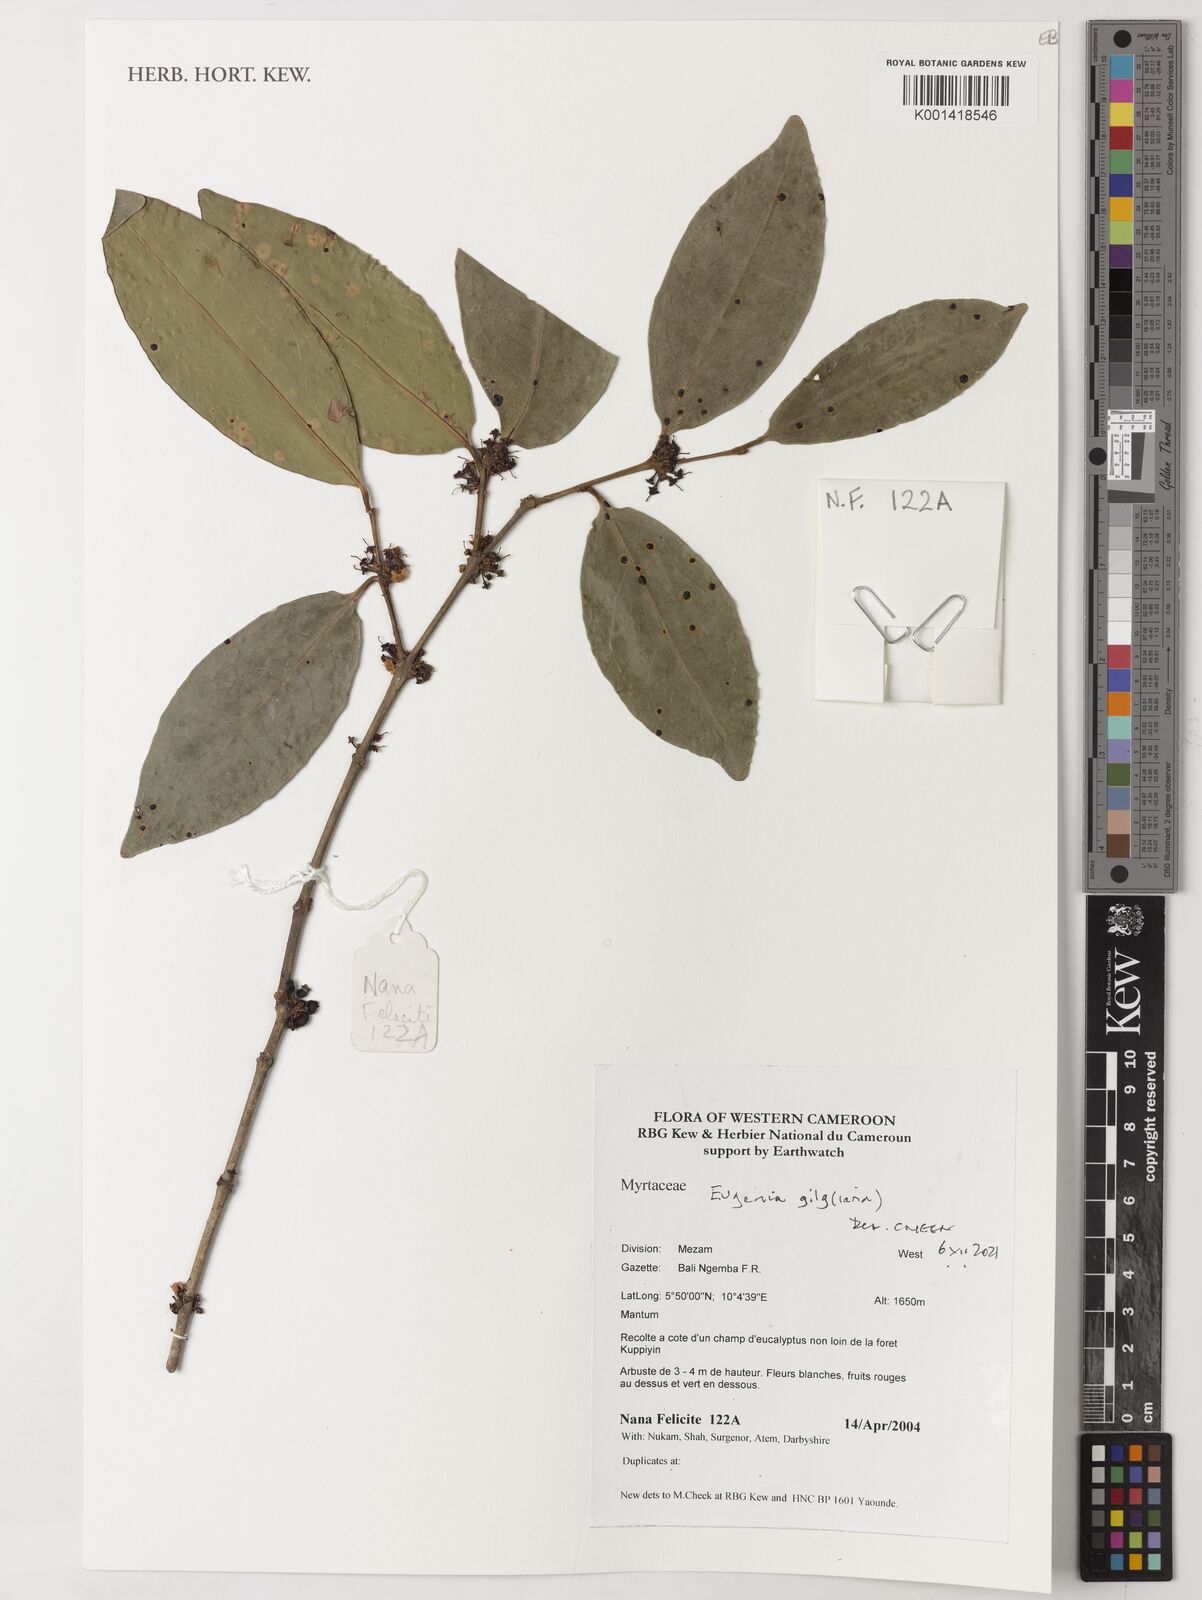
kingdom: Plantae
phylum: Tracheophyta
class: Magnoliopsida
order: Myrtales
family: Myrtaceae
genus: Eugenia
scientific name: Eugenia gilgii
